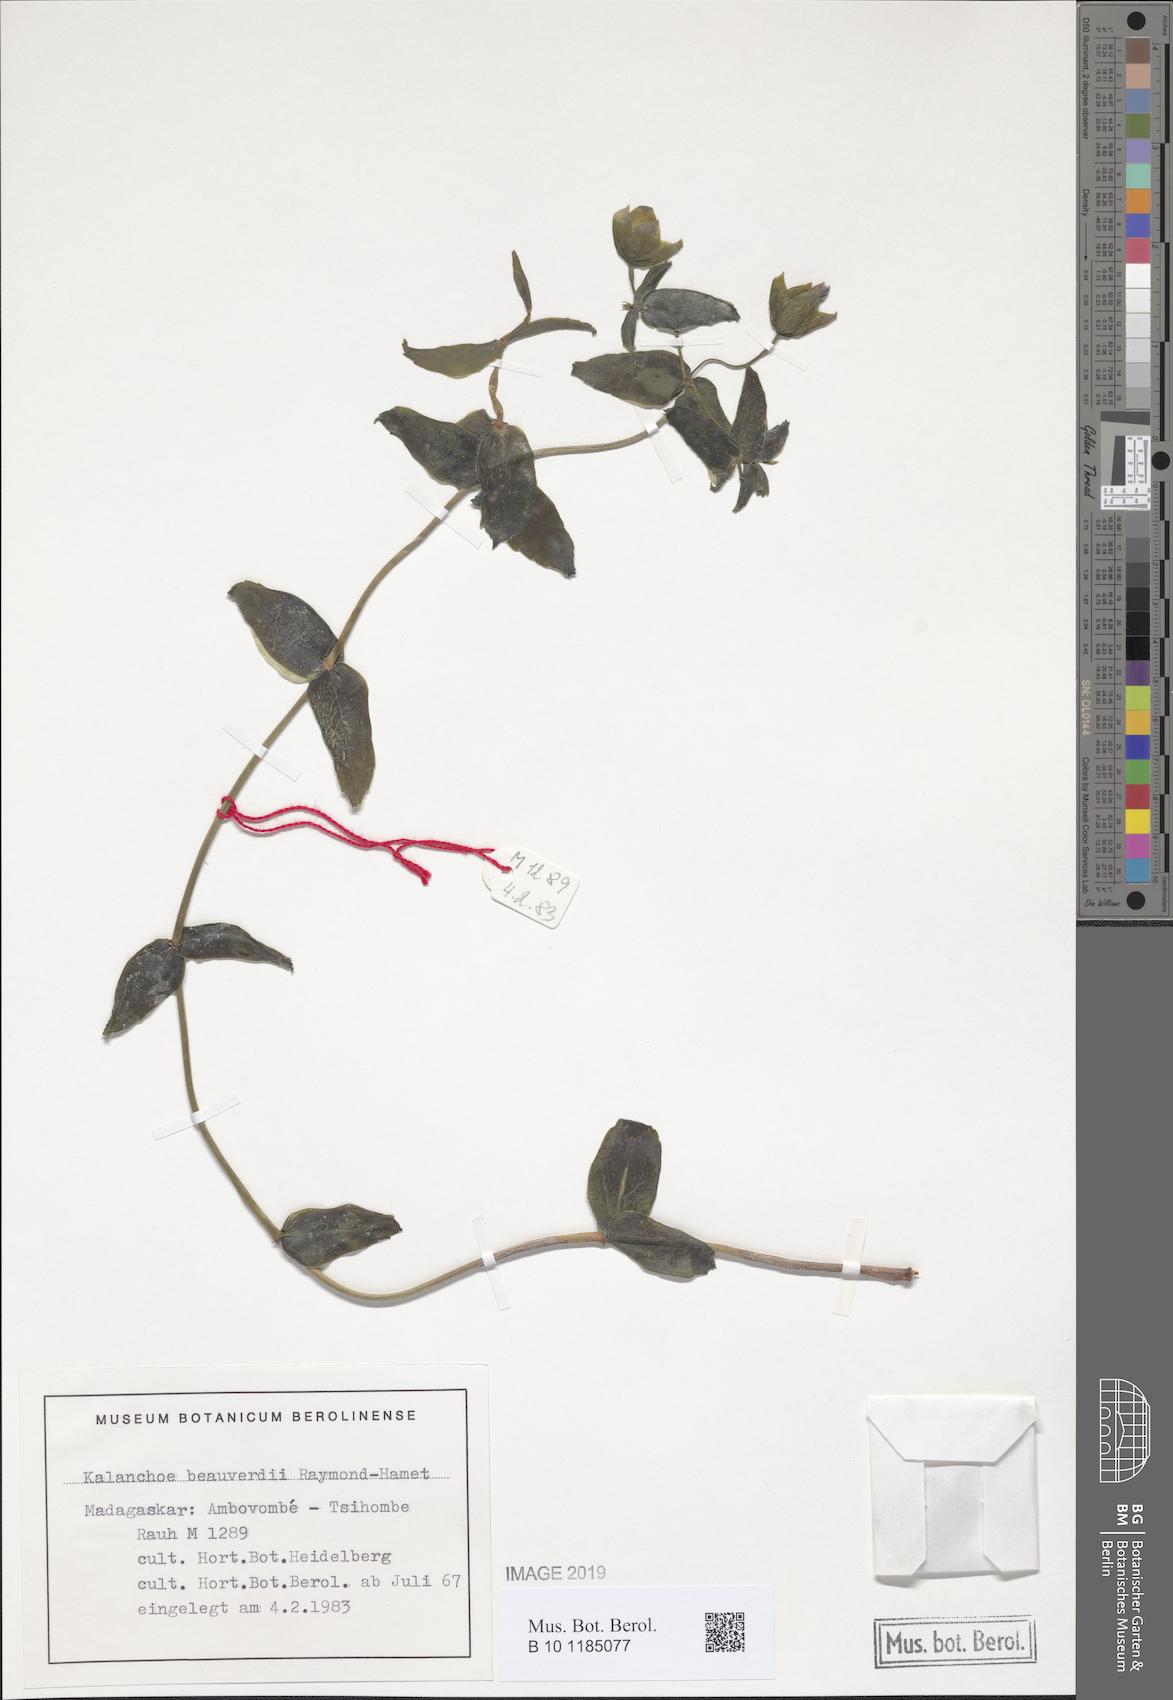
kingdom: Plantae
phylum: Tracheophyta
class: Magnoliopsida
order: Saxifragales
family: Crassulaceae
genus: Kalanchoe
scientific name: Kalanchoe beauverdii
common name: Beauverd's widow's-thrill
